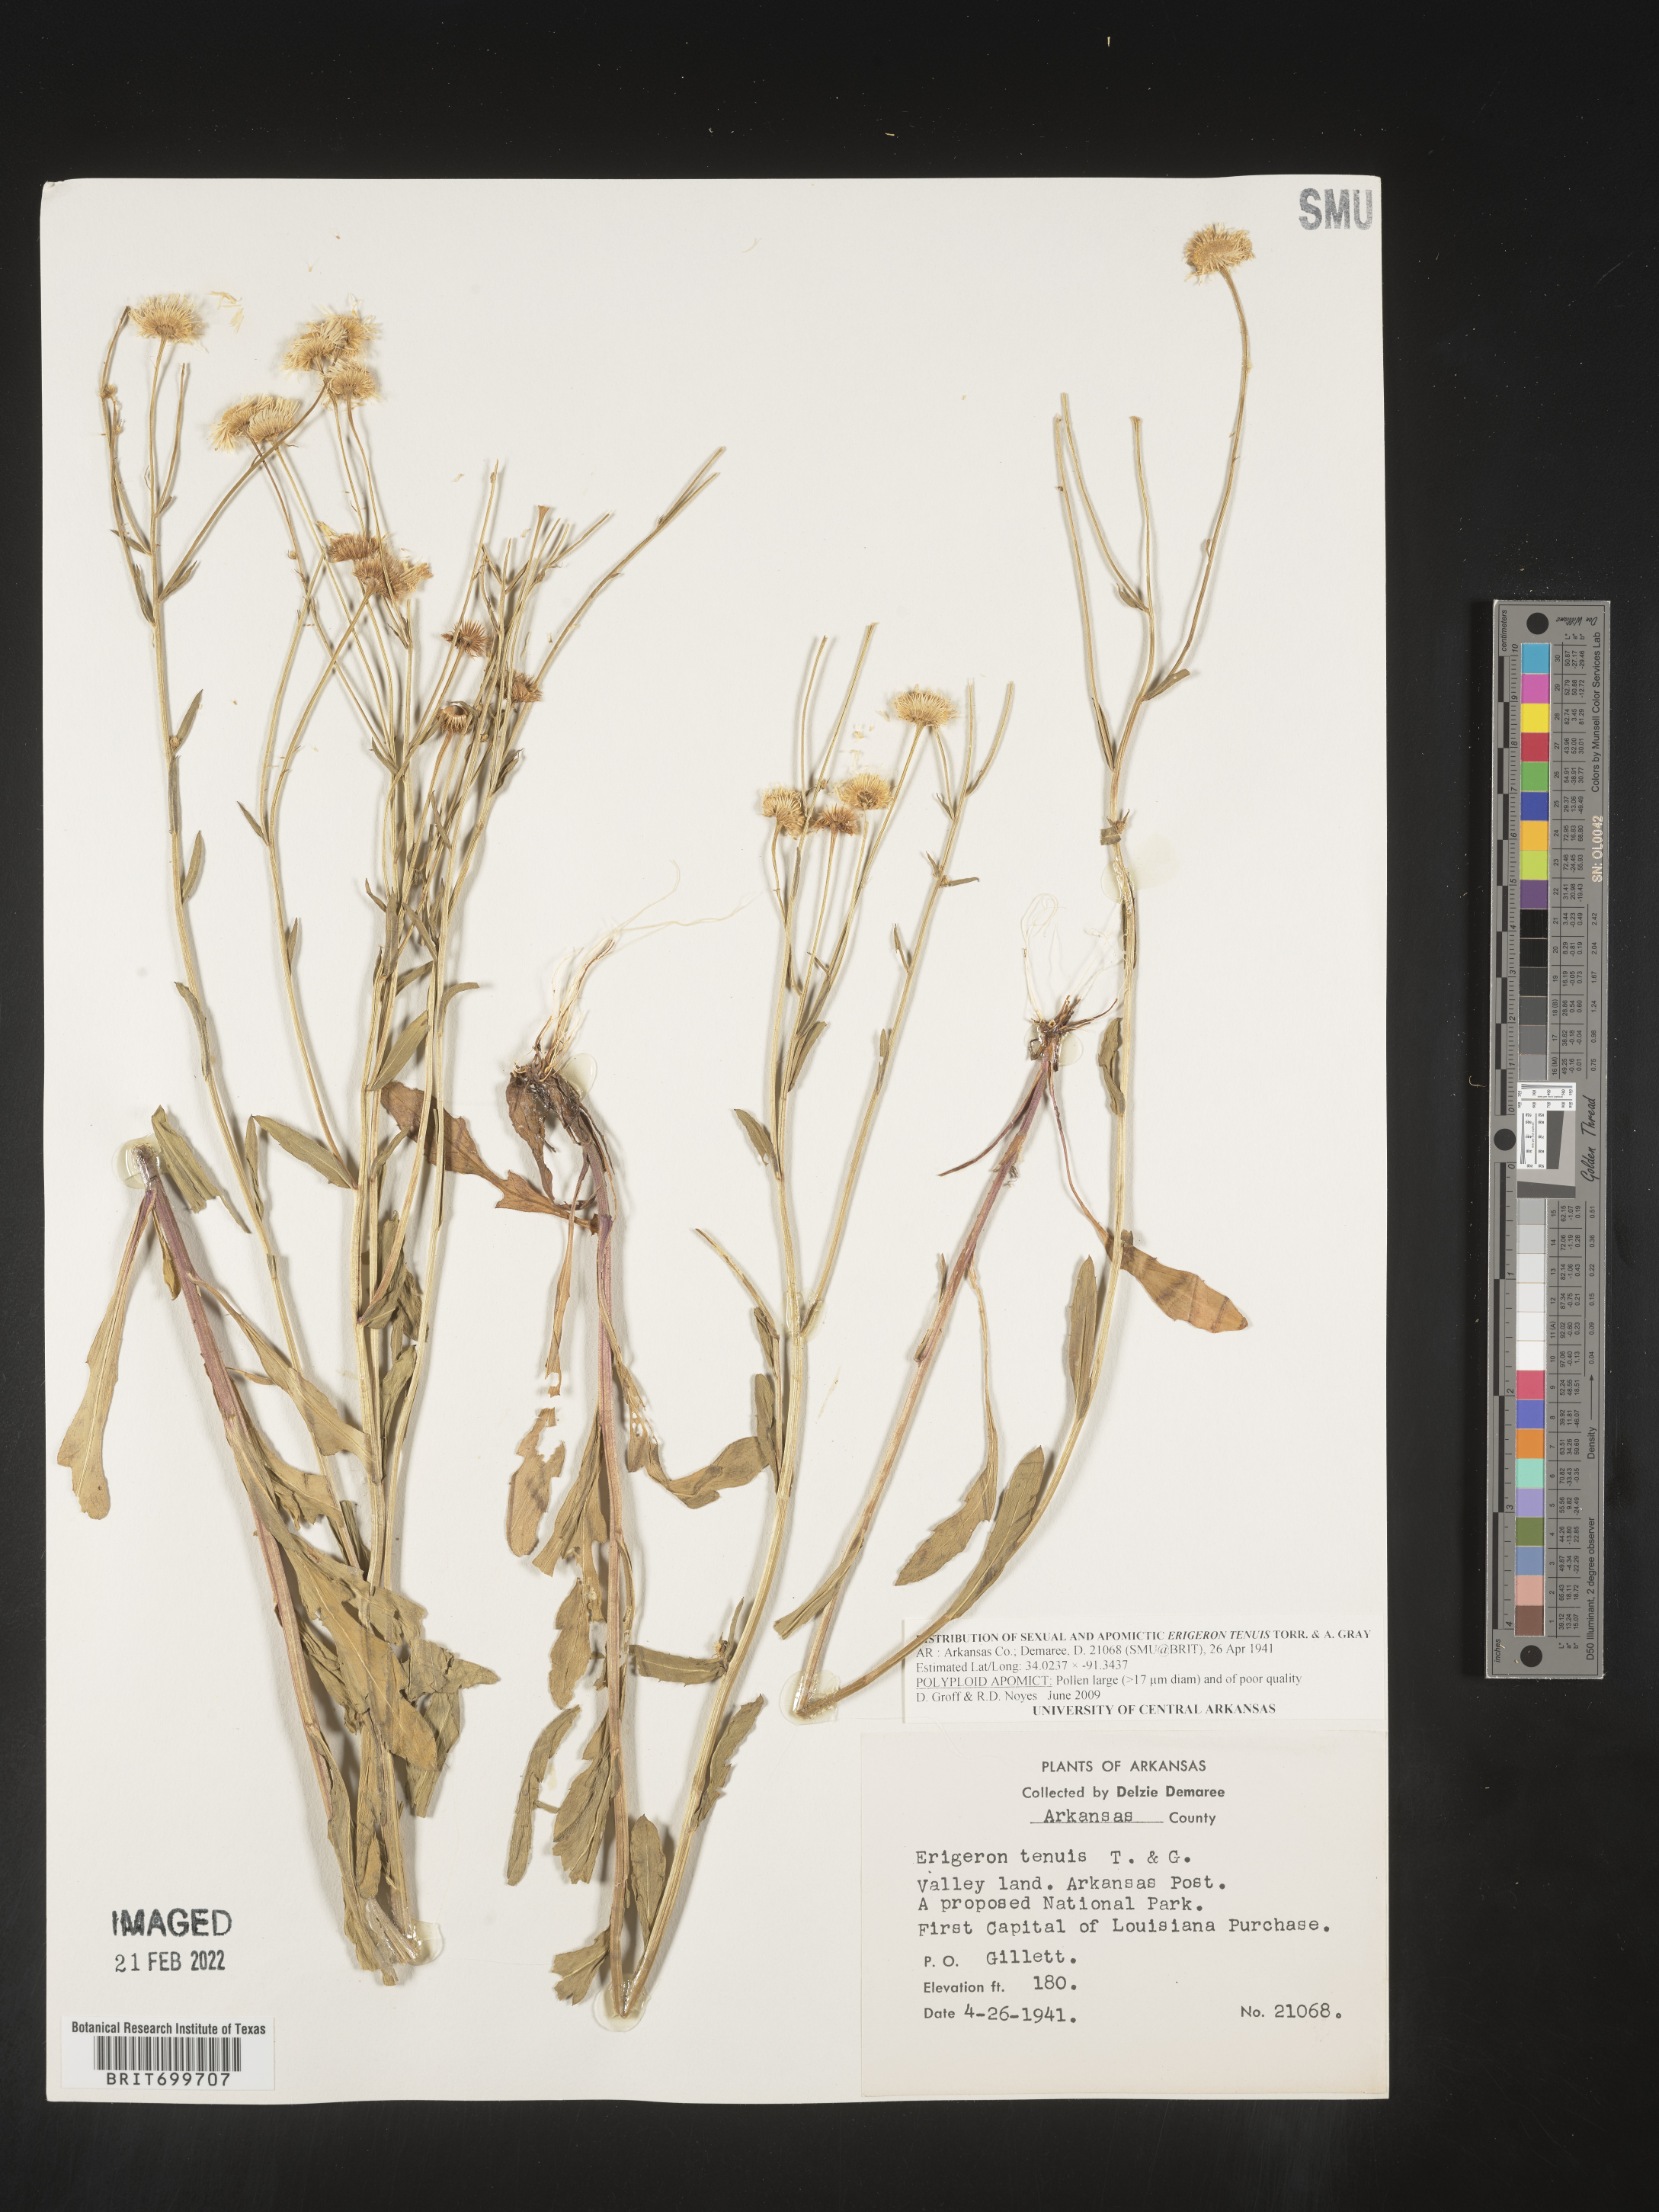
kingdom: Plantae
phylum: Tracheophyta
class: Magnoliopsida
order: Asterales
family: Asteraceae
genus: Erigeron
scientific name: Erigeron tenuis
